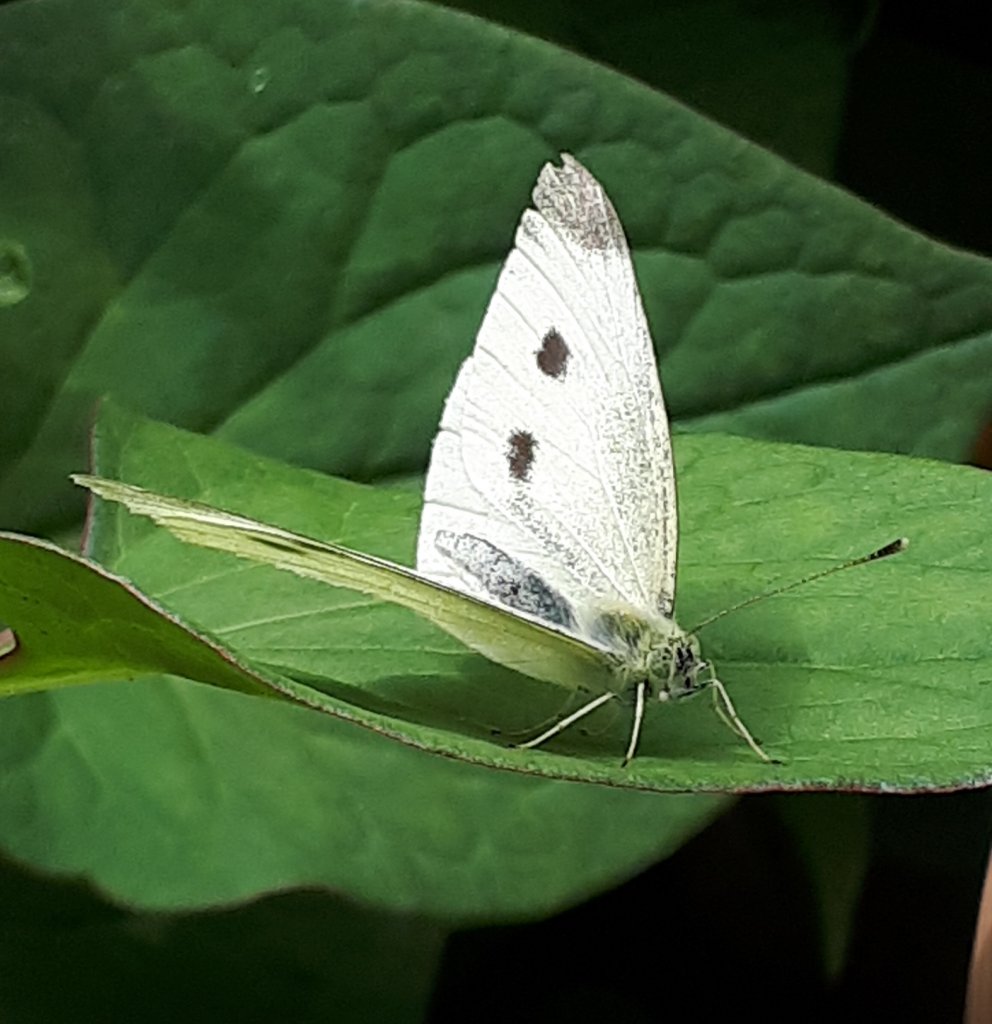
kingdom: Animalia
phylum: Arthropoda
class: Insecta
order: Lepidoptera
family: Pieridae
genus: Pieris
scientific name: Pieris rapae
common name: Cabbage White
